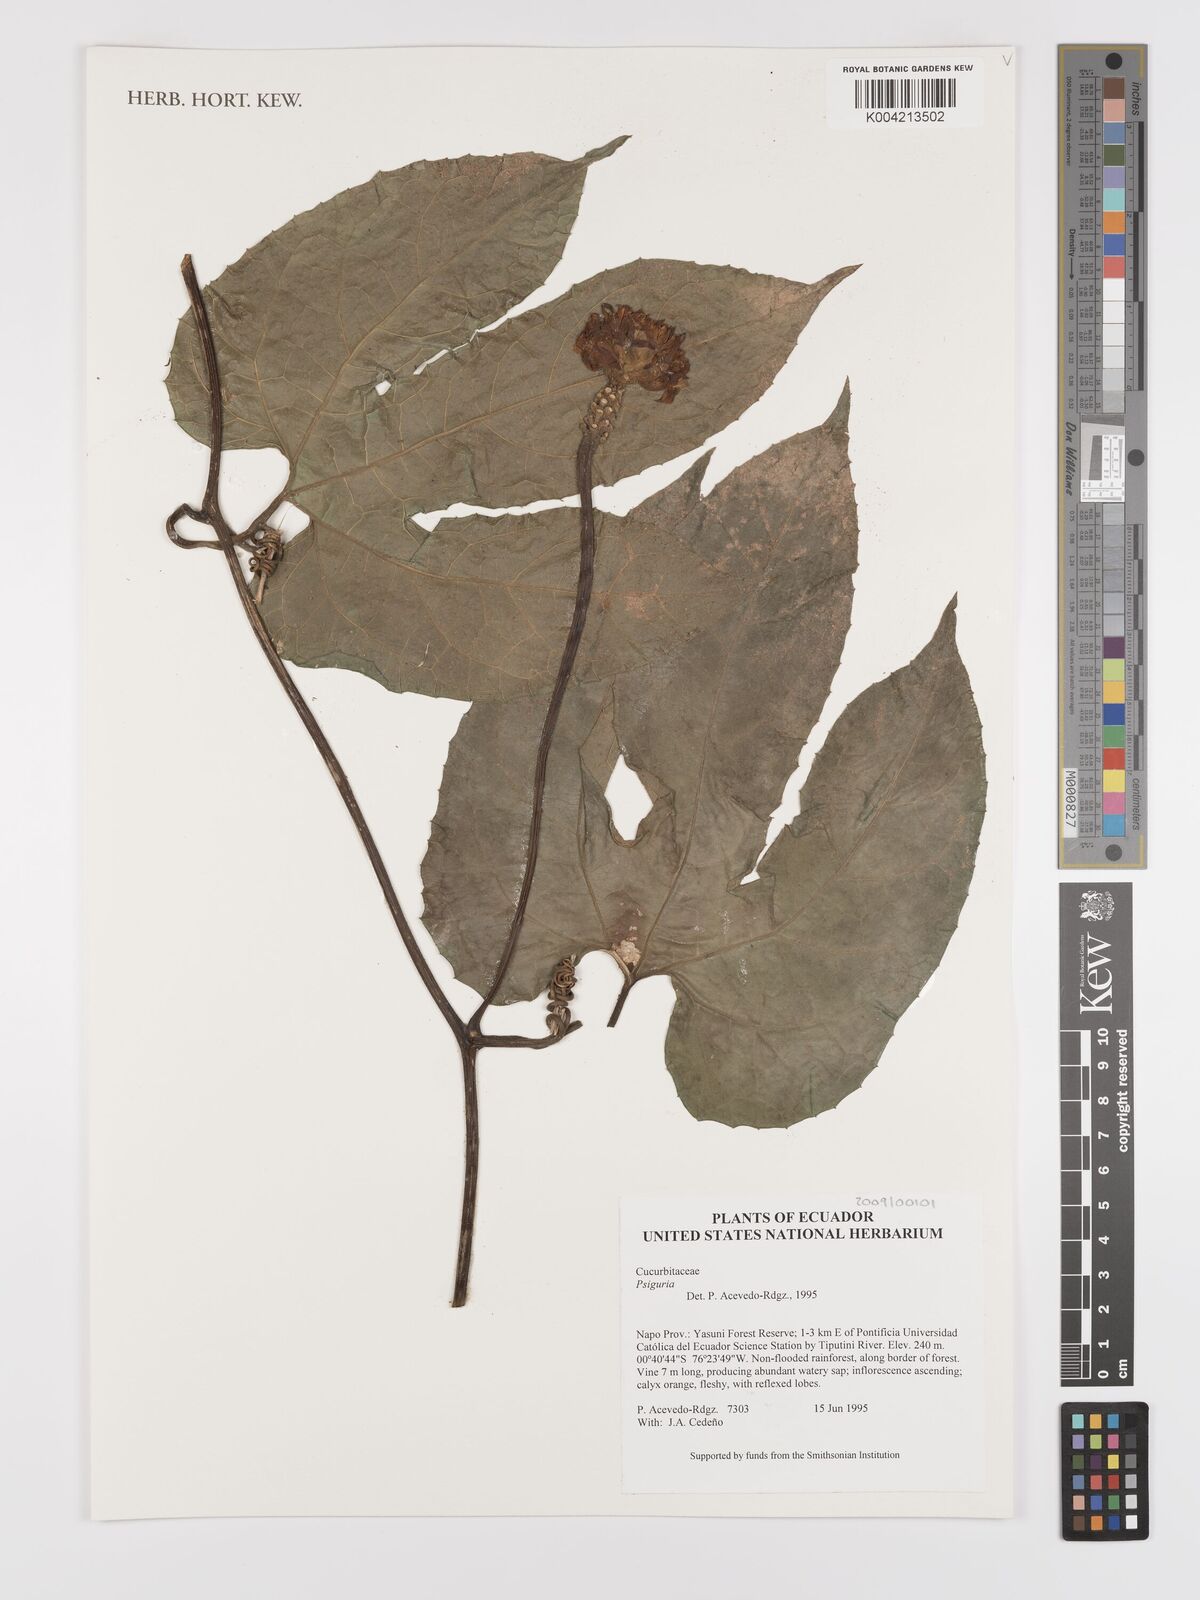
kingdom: Plantae
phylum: Tracheophyta
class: Magnoliopsida
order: Cucurbitales
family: Cucurbitaceae
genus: Psiguria
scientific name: Psiguria
